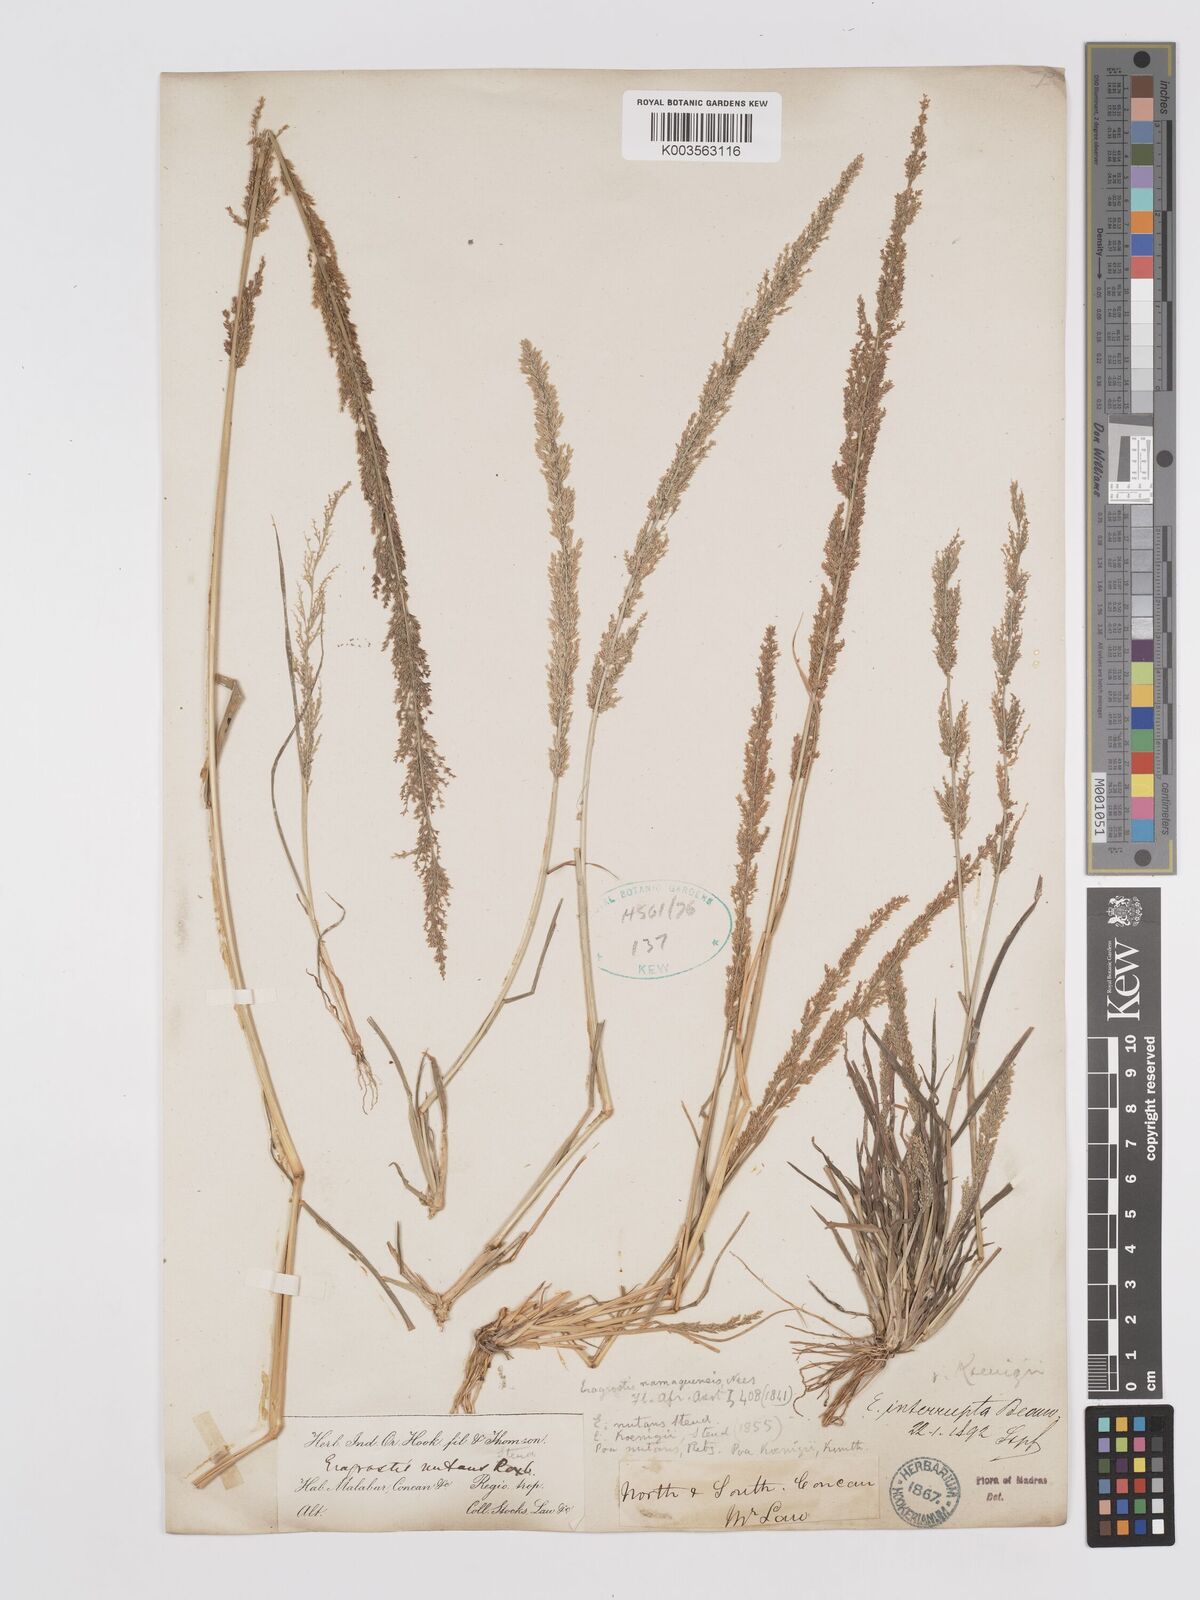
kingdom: Plantae
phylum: Tracheophyta
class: Liliopsida
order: Poales
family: Poaceae
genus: Eragrostis
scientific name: Eragrostis japonica
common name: Pond lovegrass
